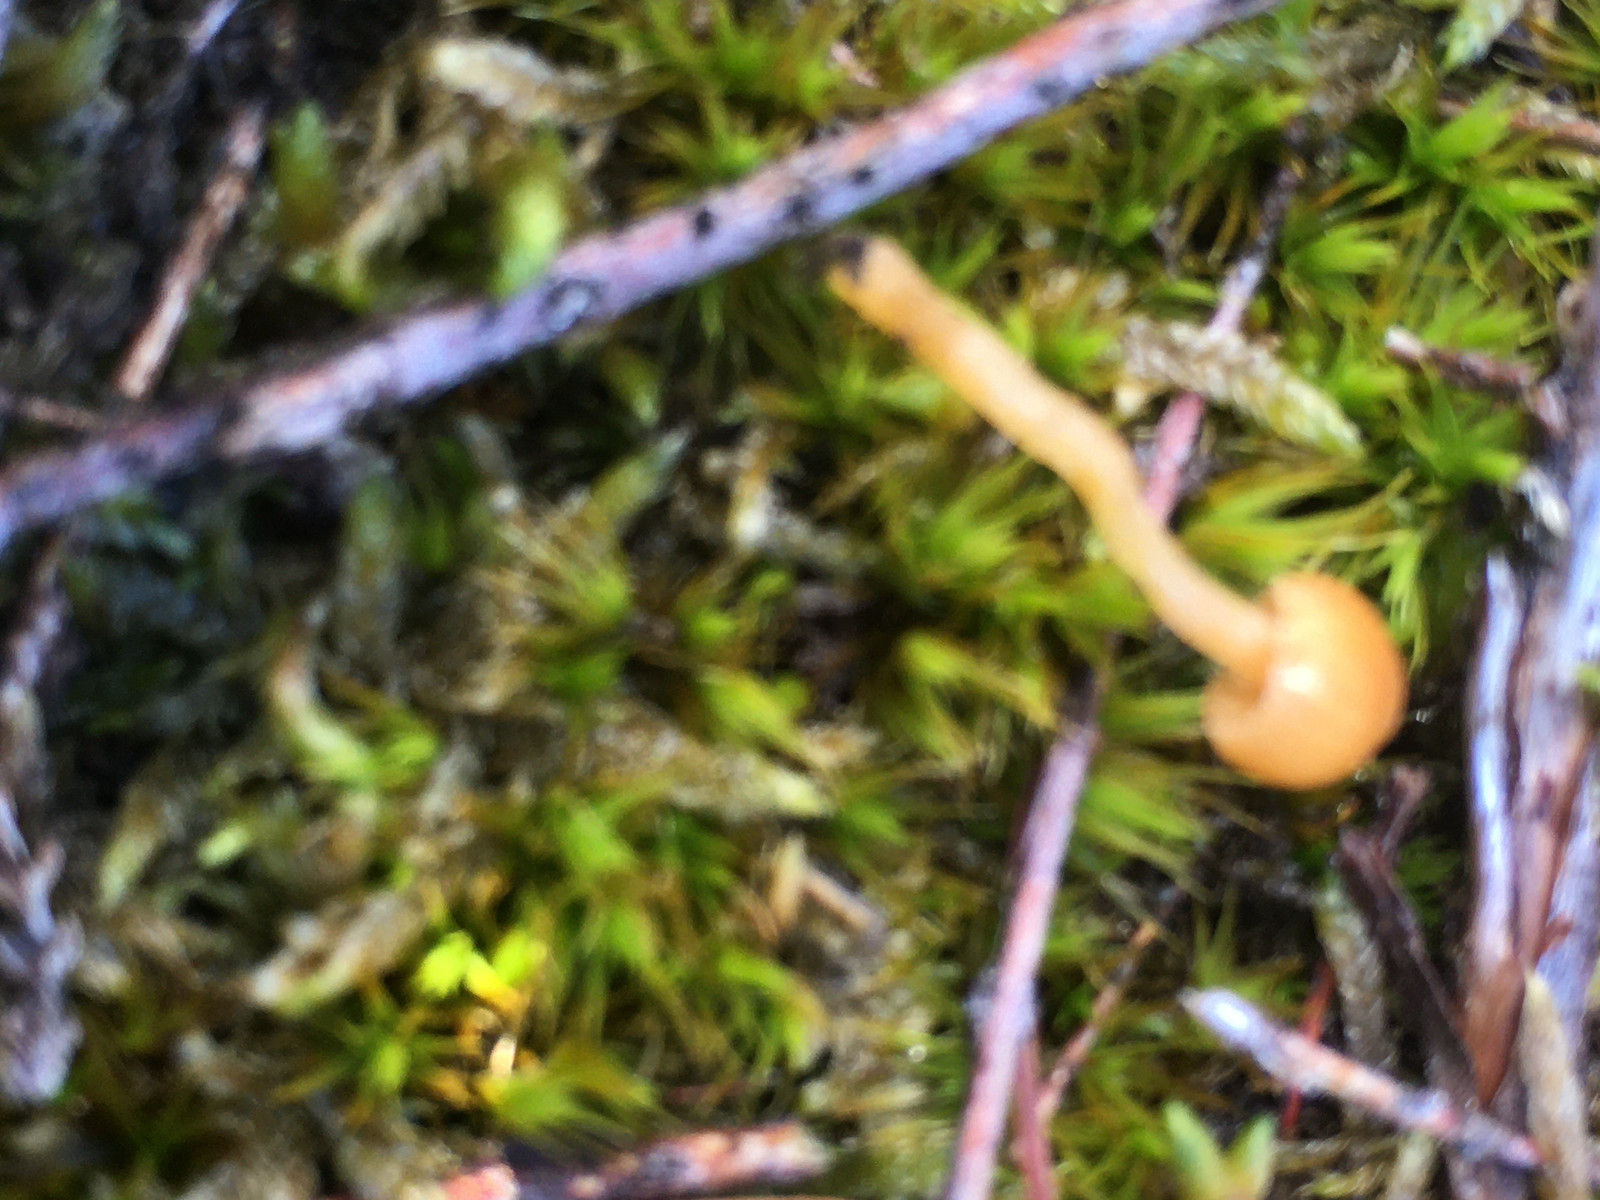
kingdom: Fungi
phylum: Basidiomycota
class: Agaricomycetes
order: Agaricales
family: Hymenogastraceae
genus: Galerina
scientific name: Galerina
